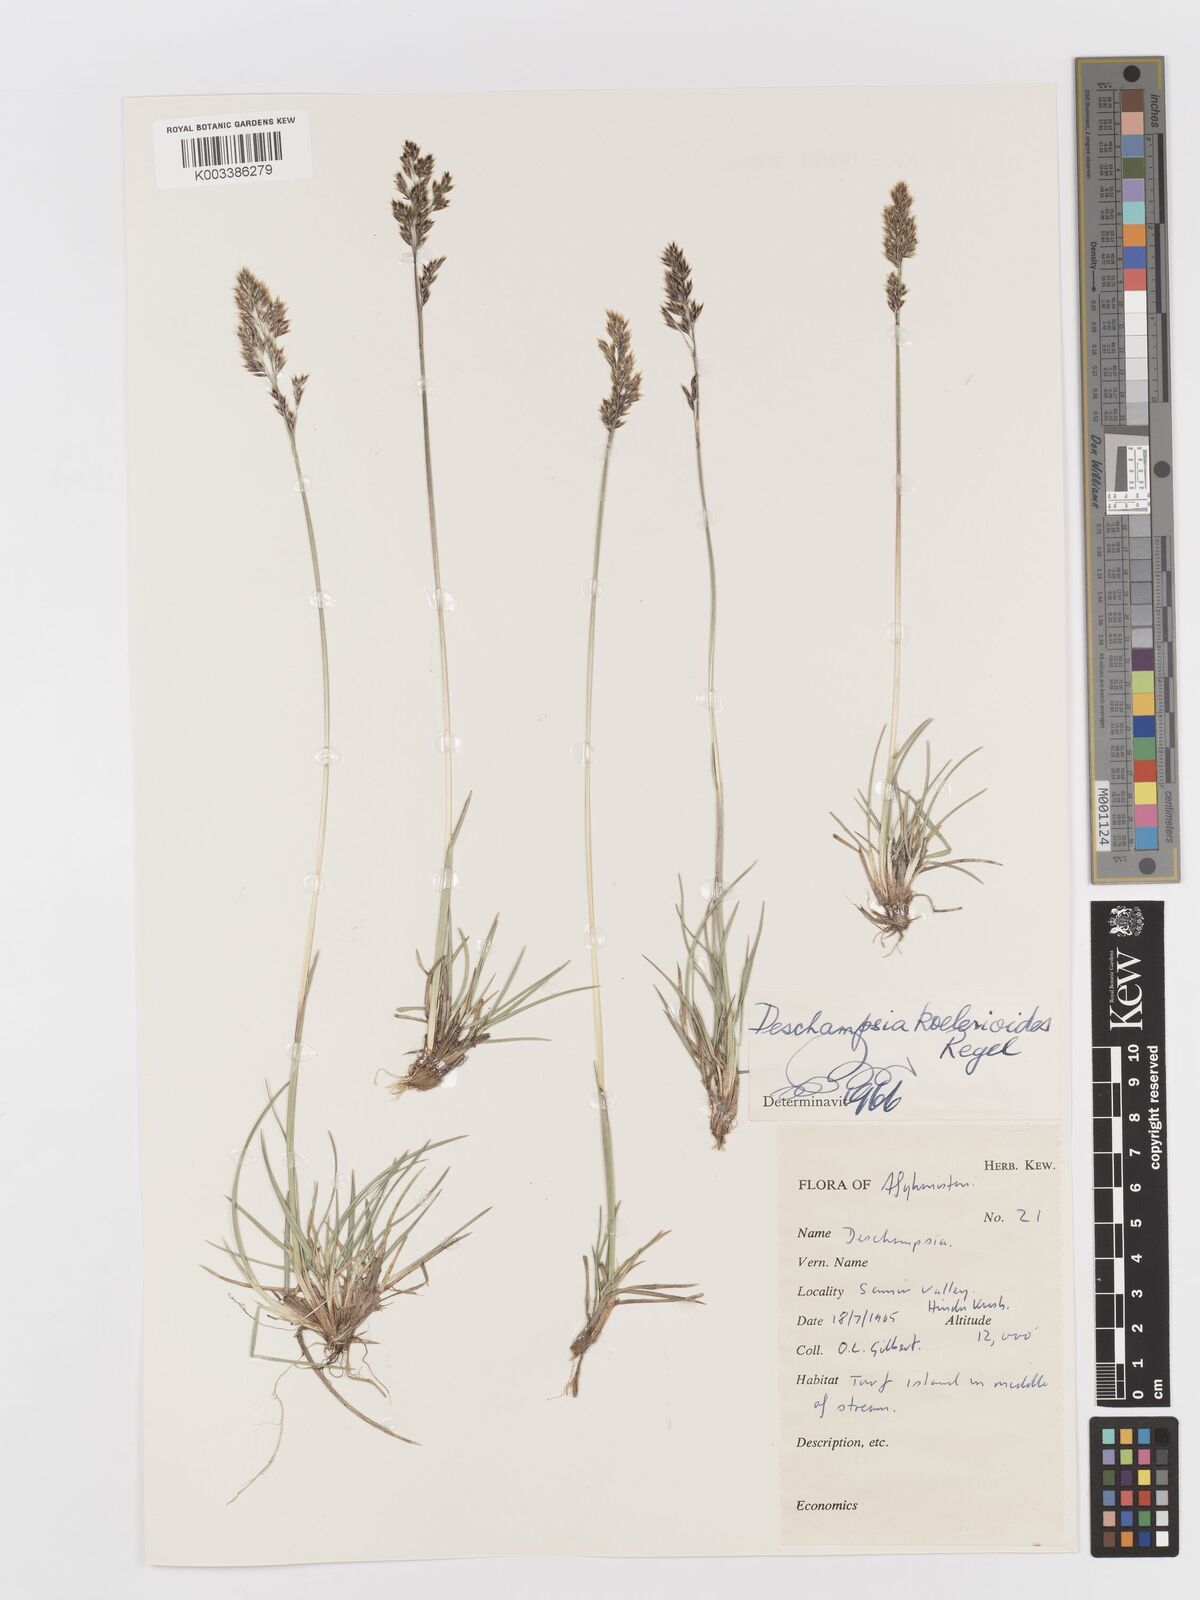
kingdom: Plantae
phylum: Tracheophyta
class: Liliopsida
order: Poales
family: Poaceae
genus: Deschampsia
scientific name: Deschampsia koelerioides
